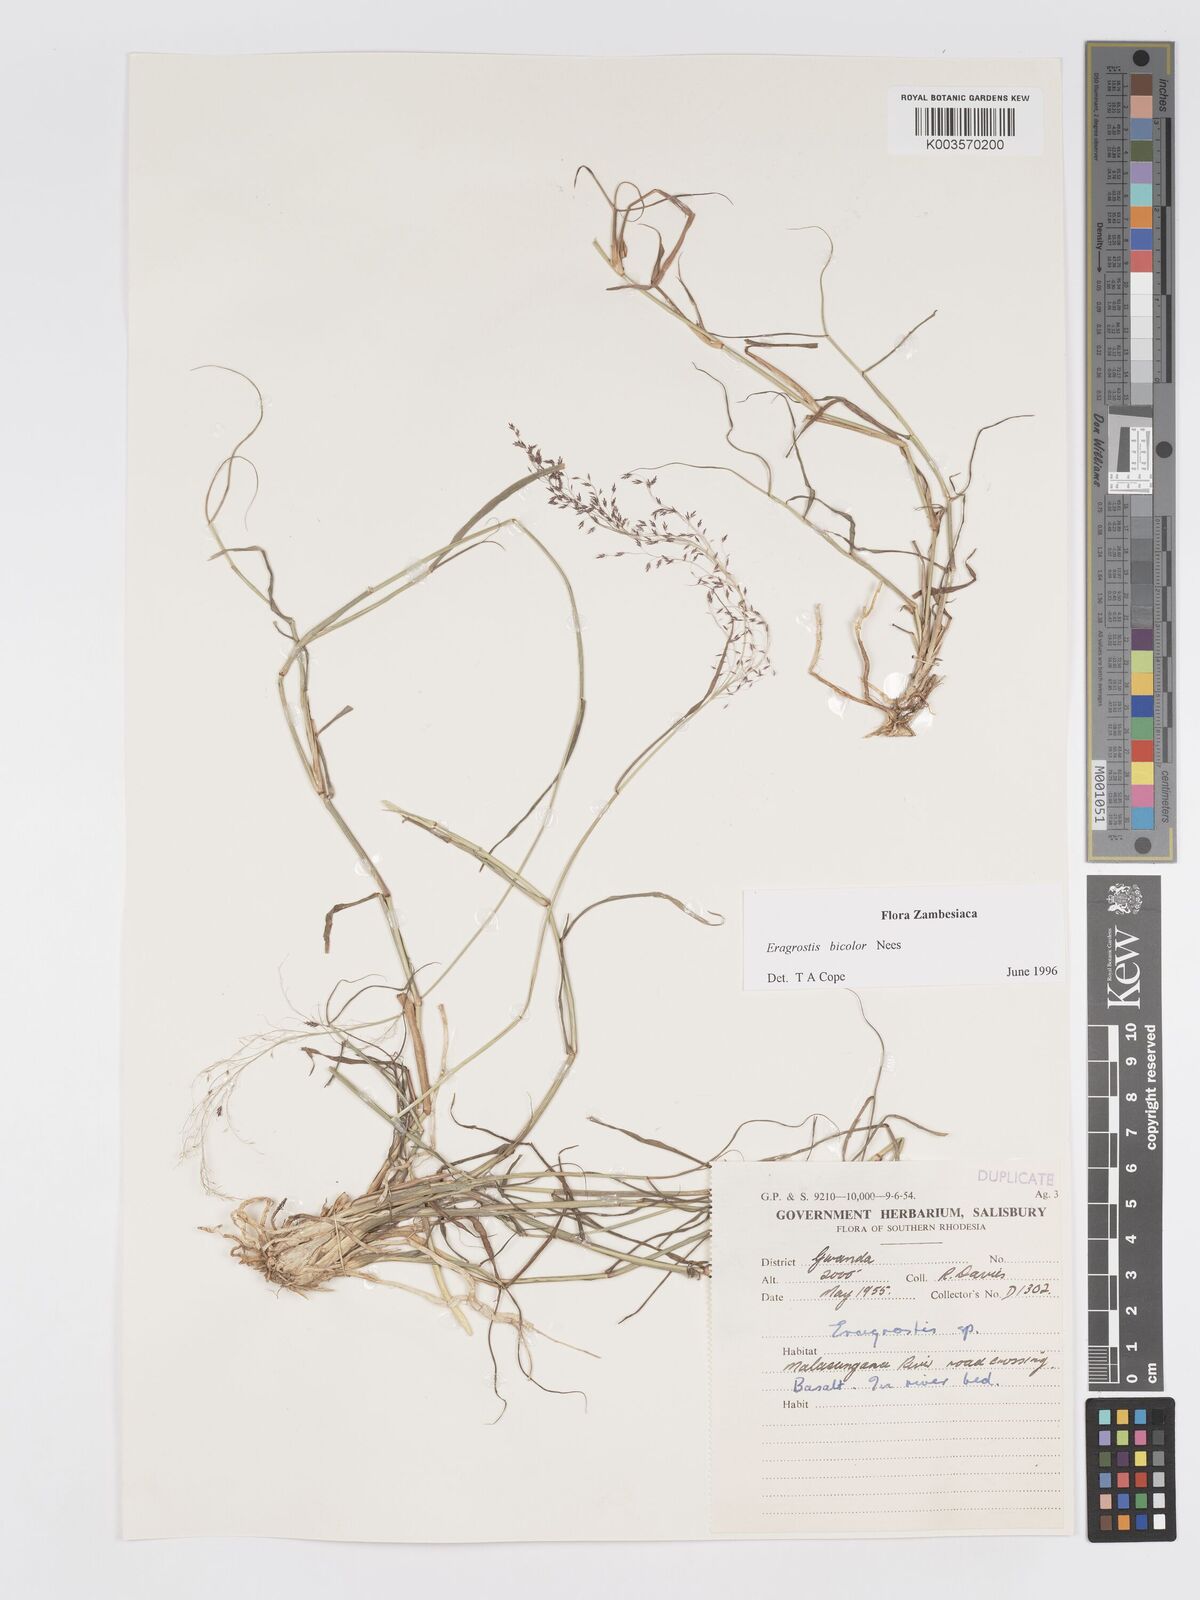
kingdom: Plantae
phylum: Tracheophyta
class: Liliopsida
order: Poales
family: Poaceae
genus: Eragrostis
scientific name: Eragrostis bicolor
